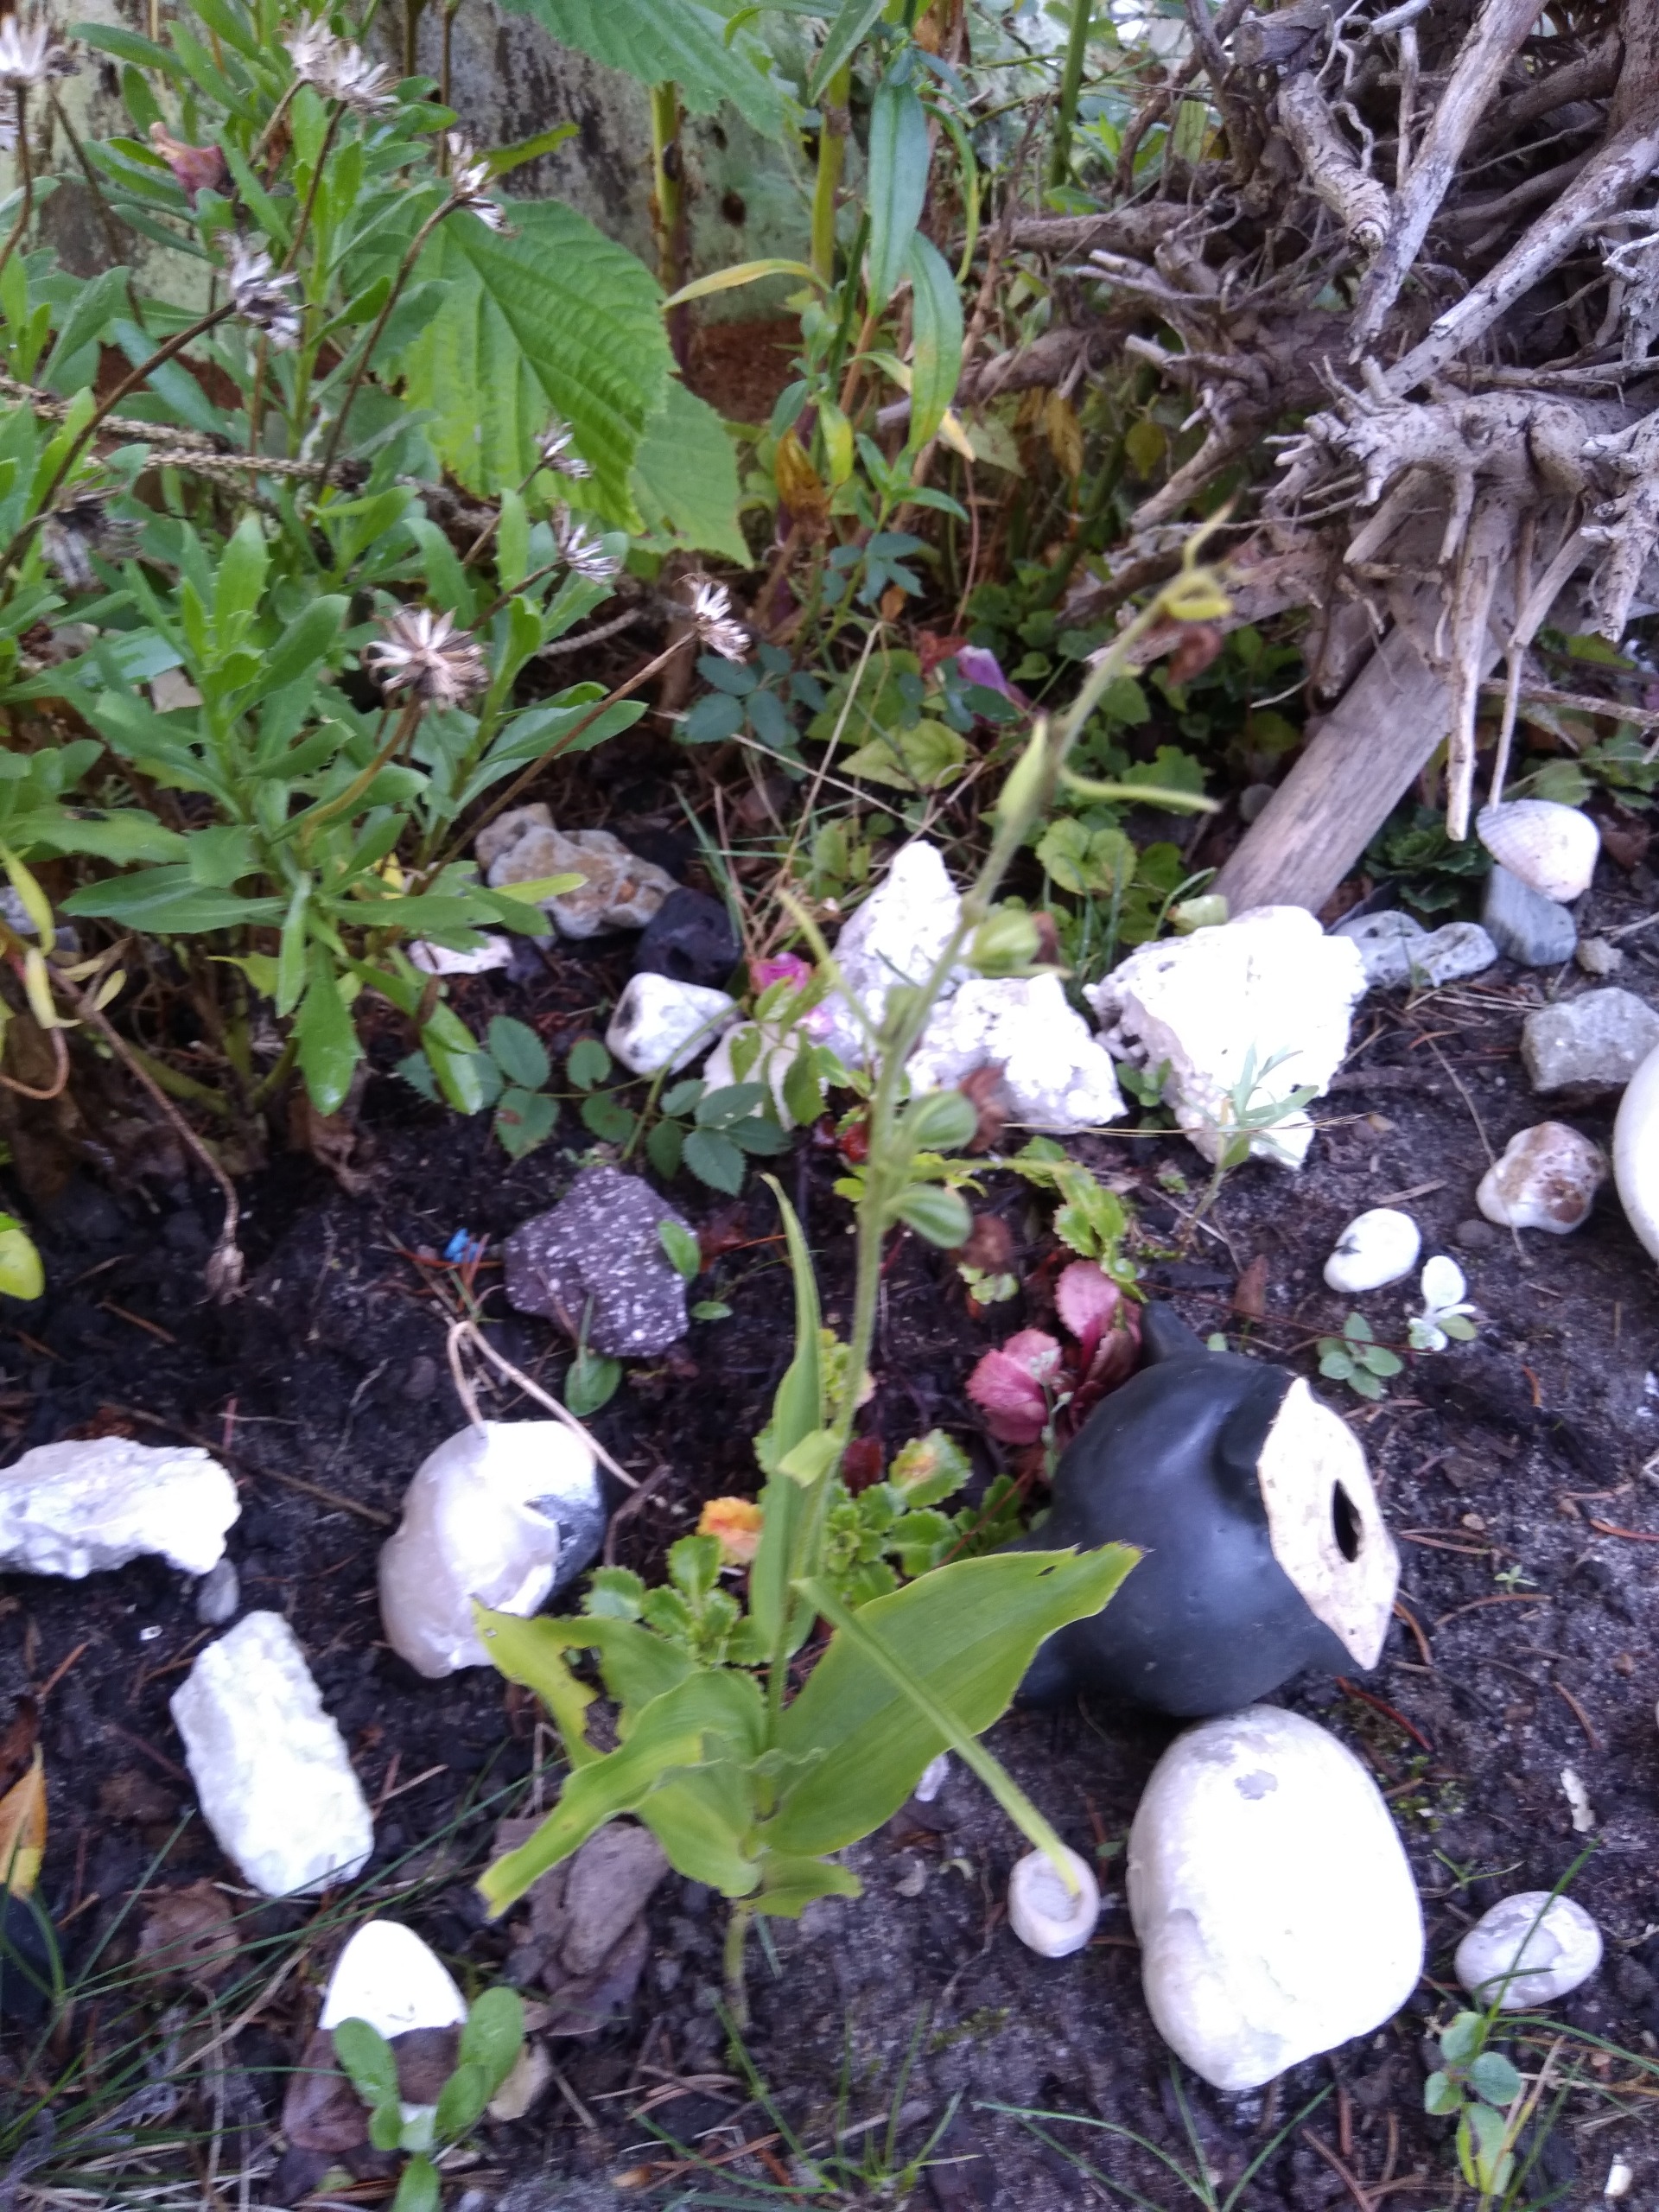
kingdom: Plantae
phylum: Tracheophyta
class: Liliopsida
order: Asparagales
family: Orchidaceae
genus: Epipactis
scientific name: Epipactis helleborine
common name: Skov-hullæbe
